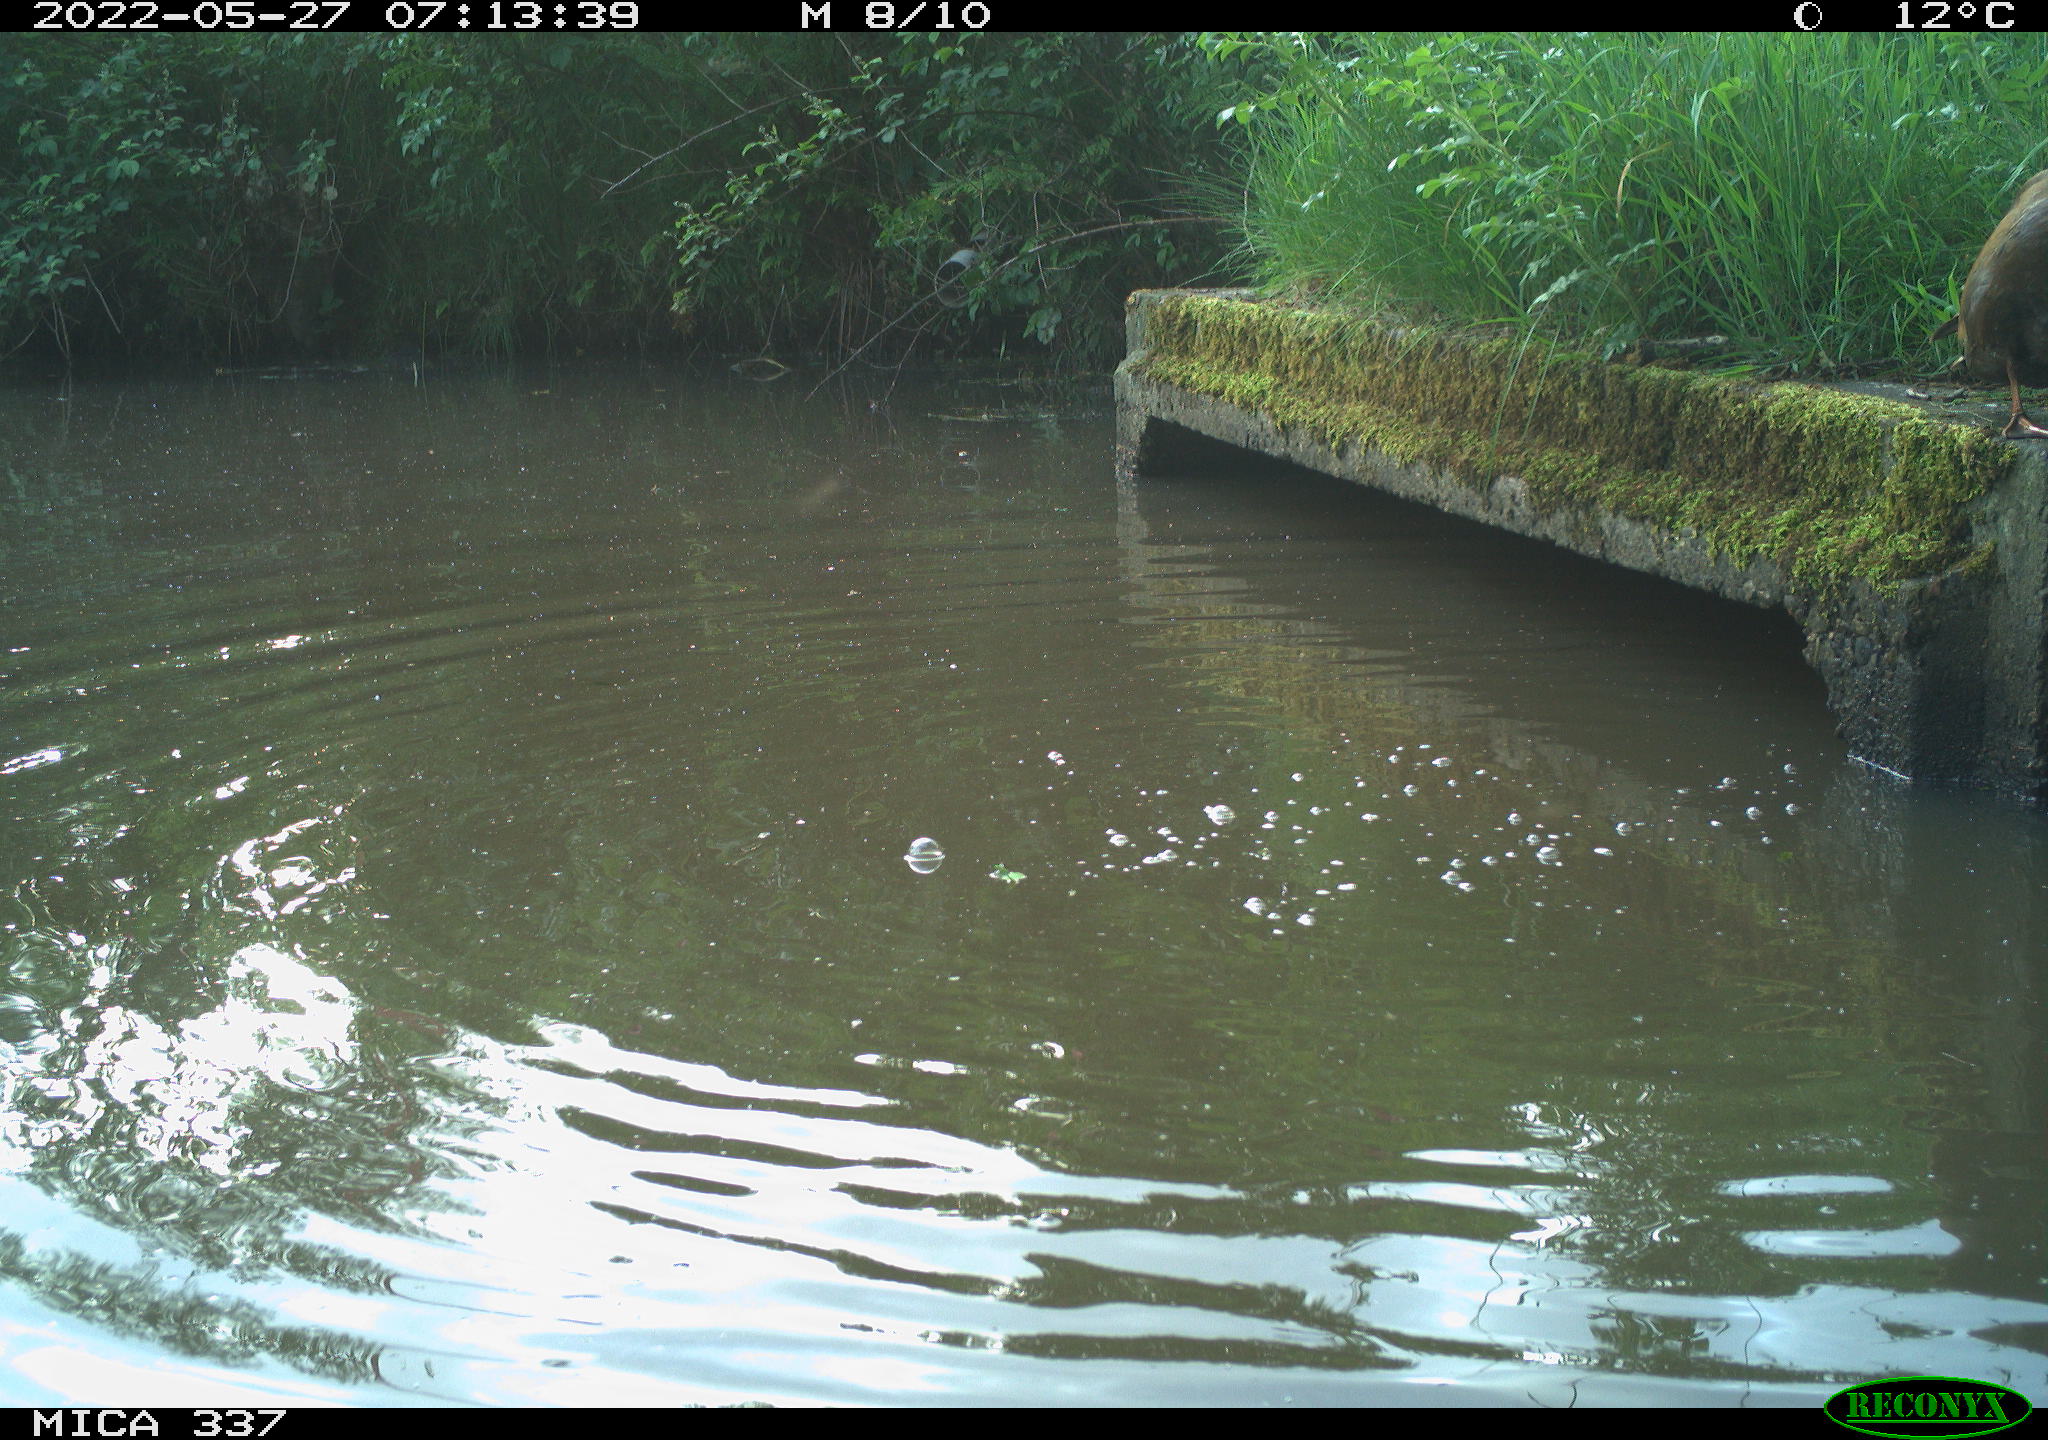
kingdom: Animalia
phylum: Chordata
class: Aves
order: Anseriformes
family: Anatidae
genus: Anas
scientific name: Anas platyrhynchos
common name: Mallard
